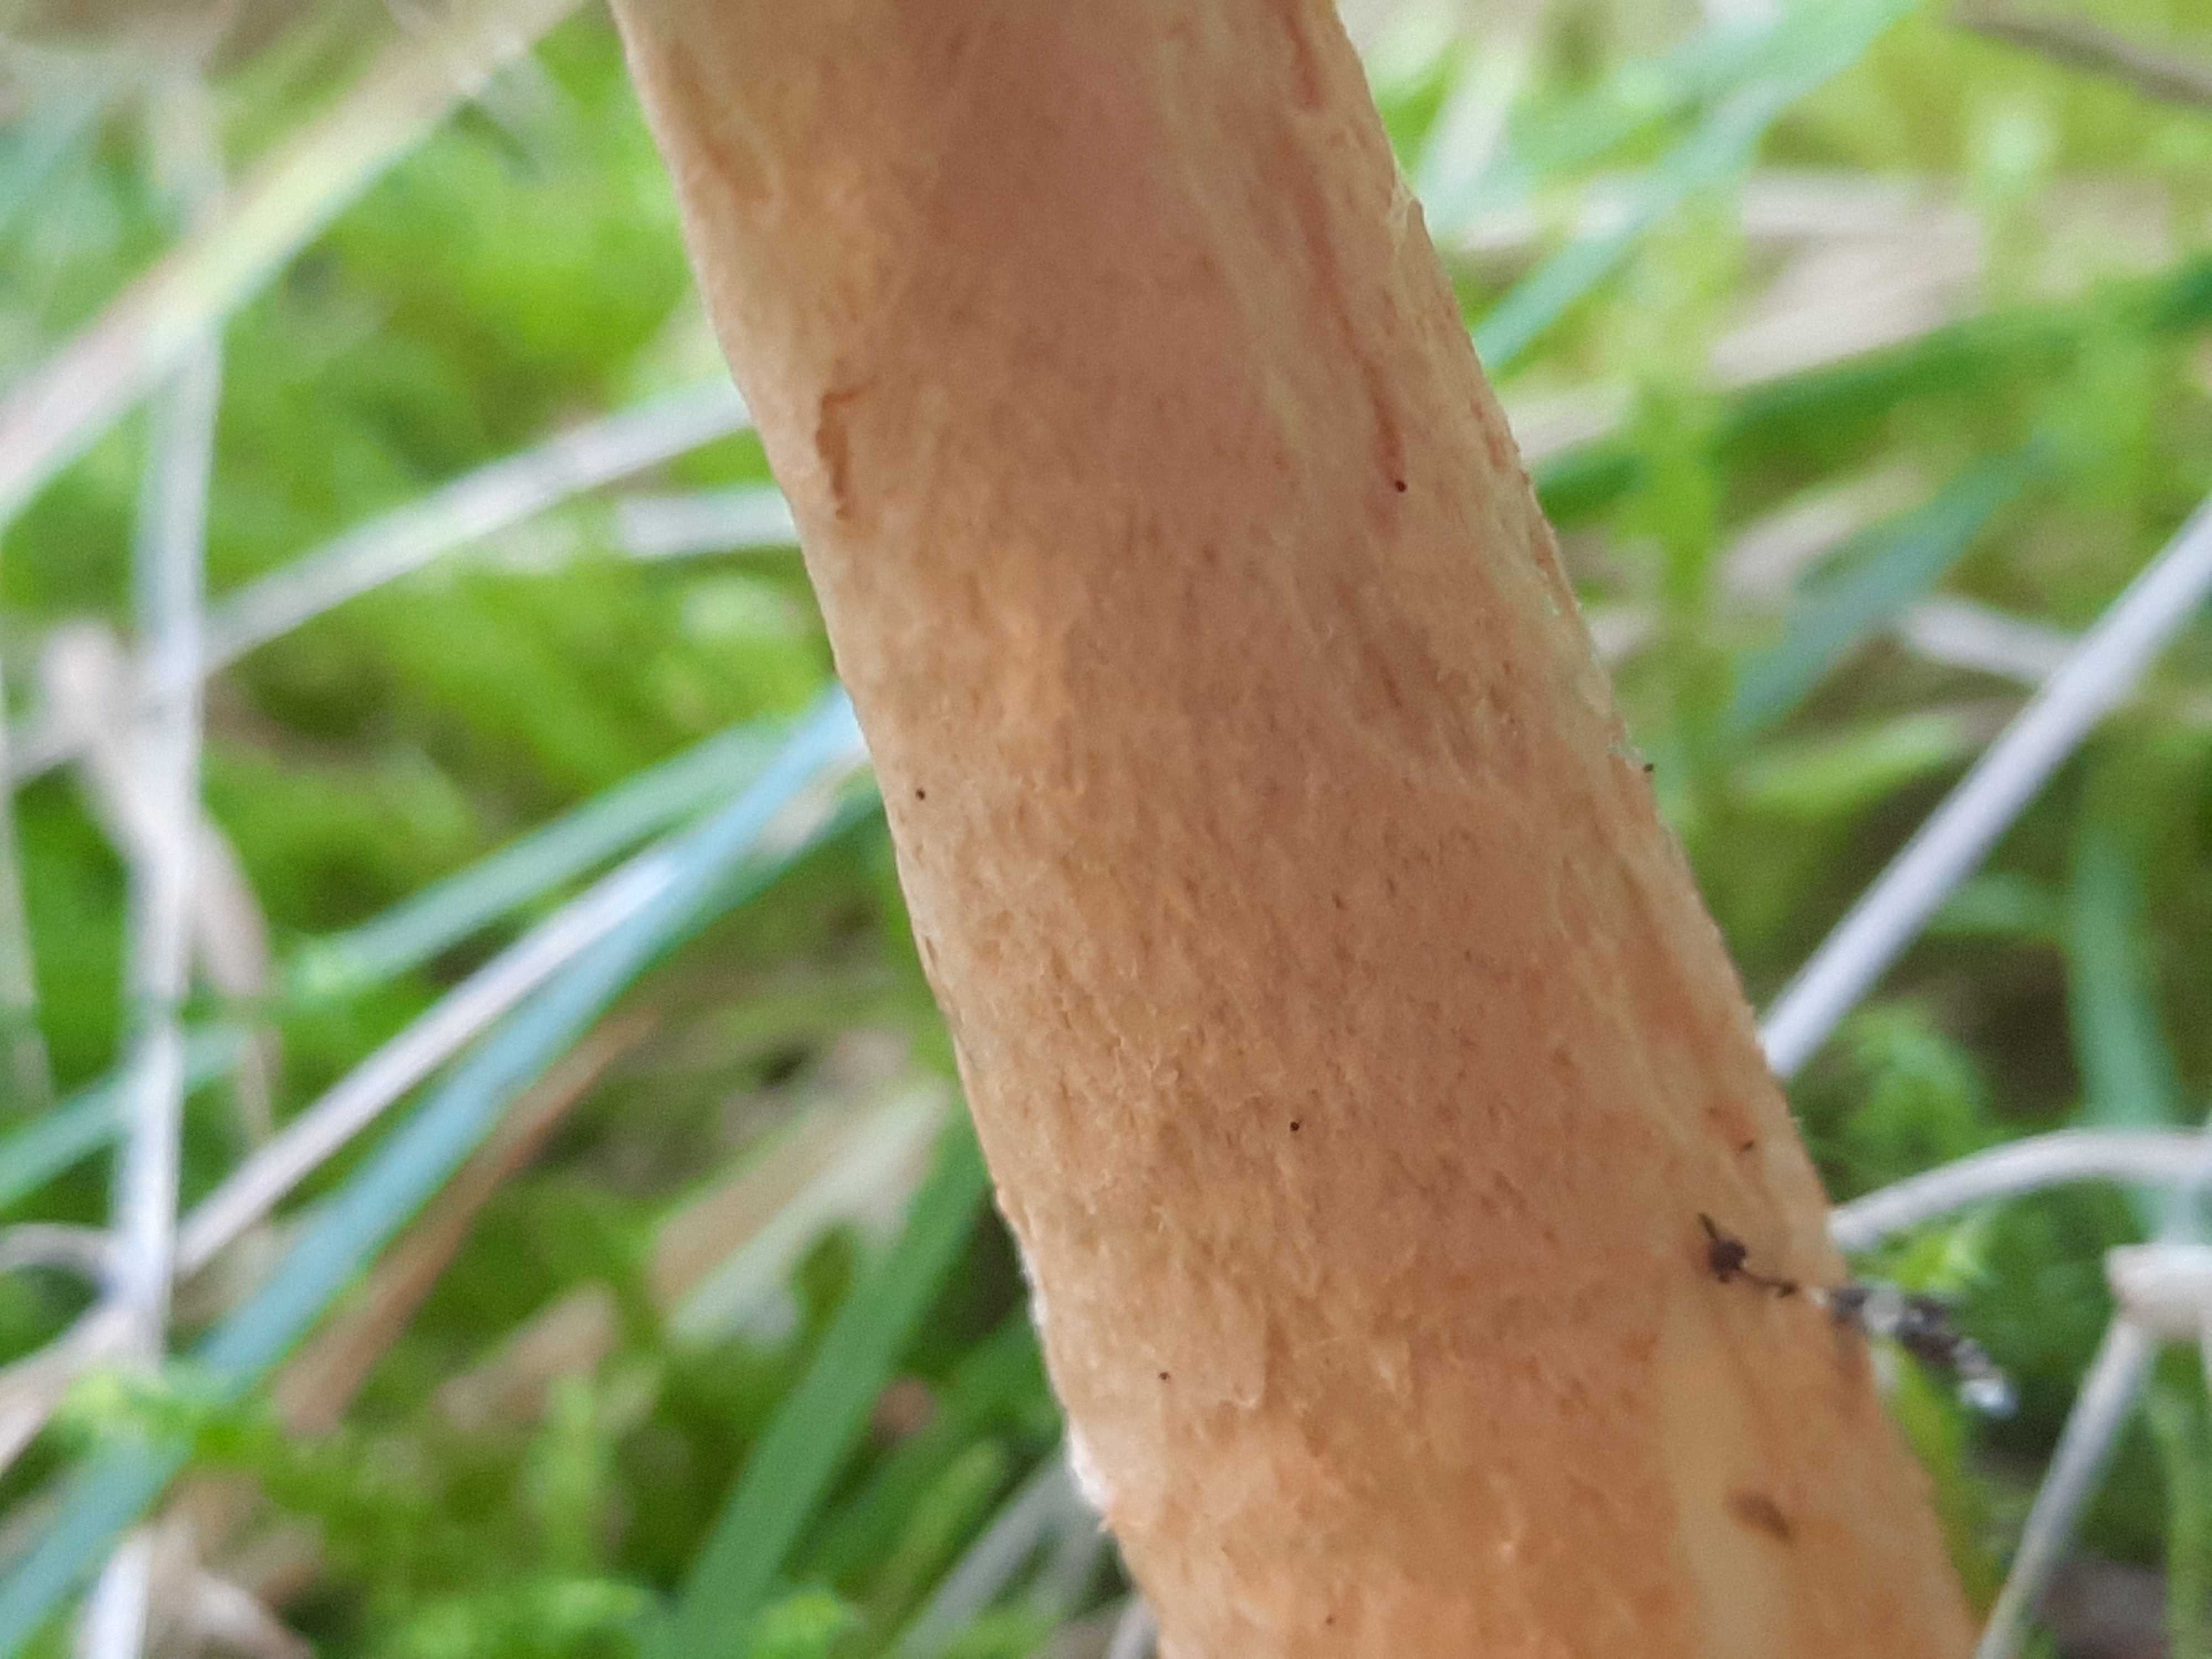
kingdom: Fungi
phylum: Basidiomycota
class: Agaricomycetes
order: Agaricales
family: Amanitaceae
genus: Amanita
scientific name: Amanita crocea
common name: gylden kam-fluesvamp
